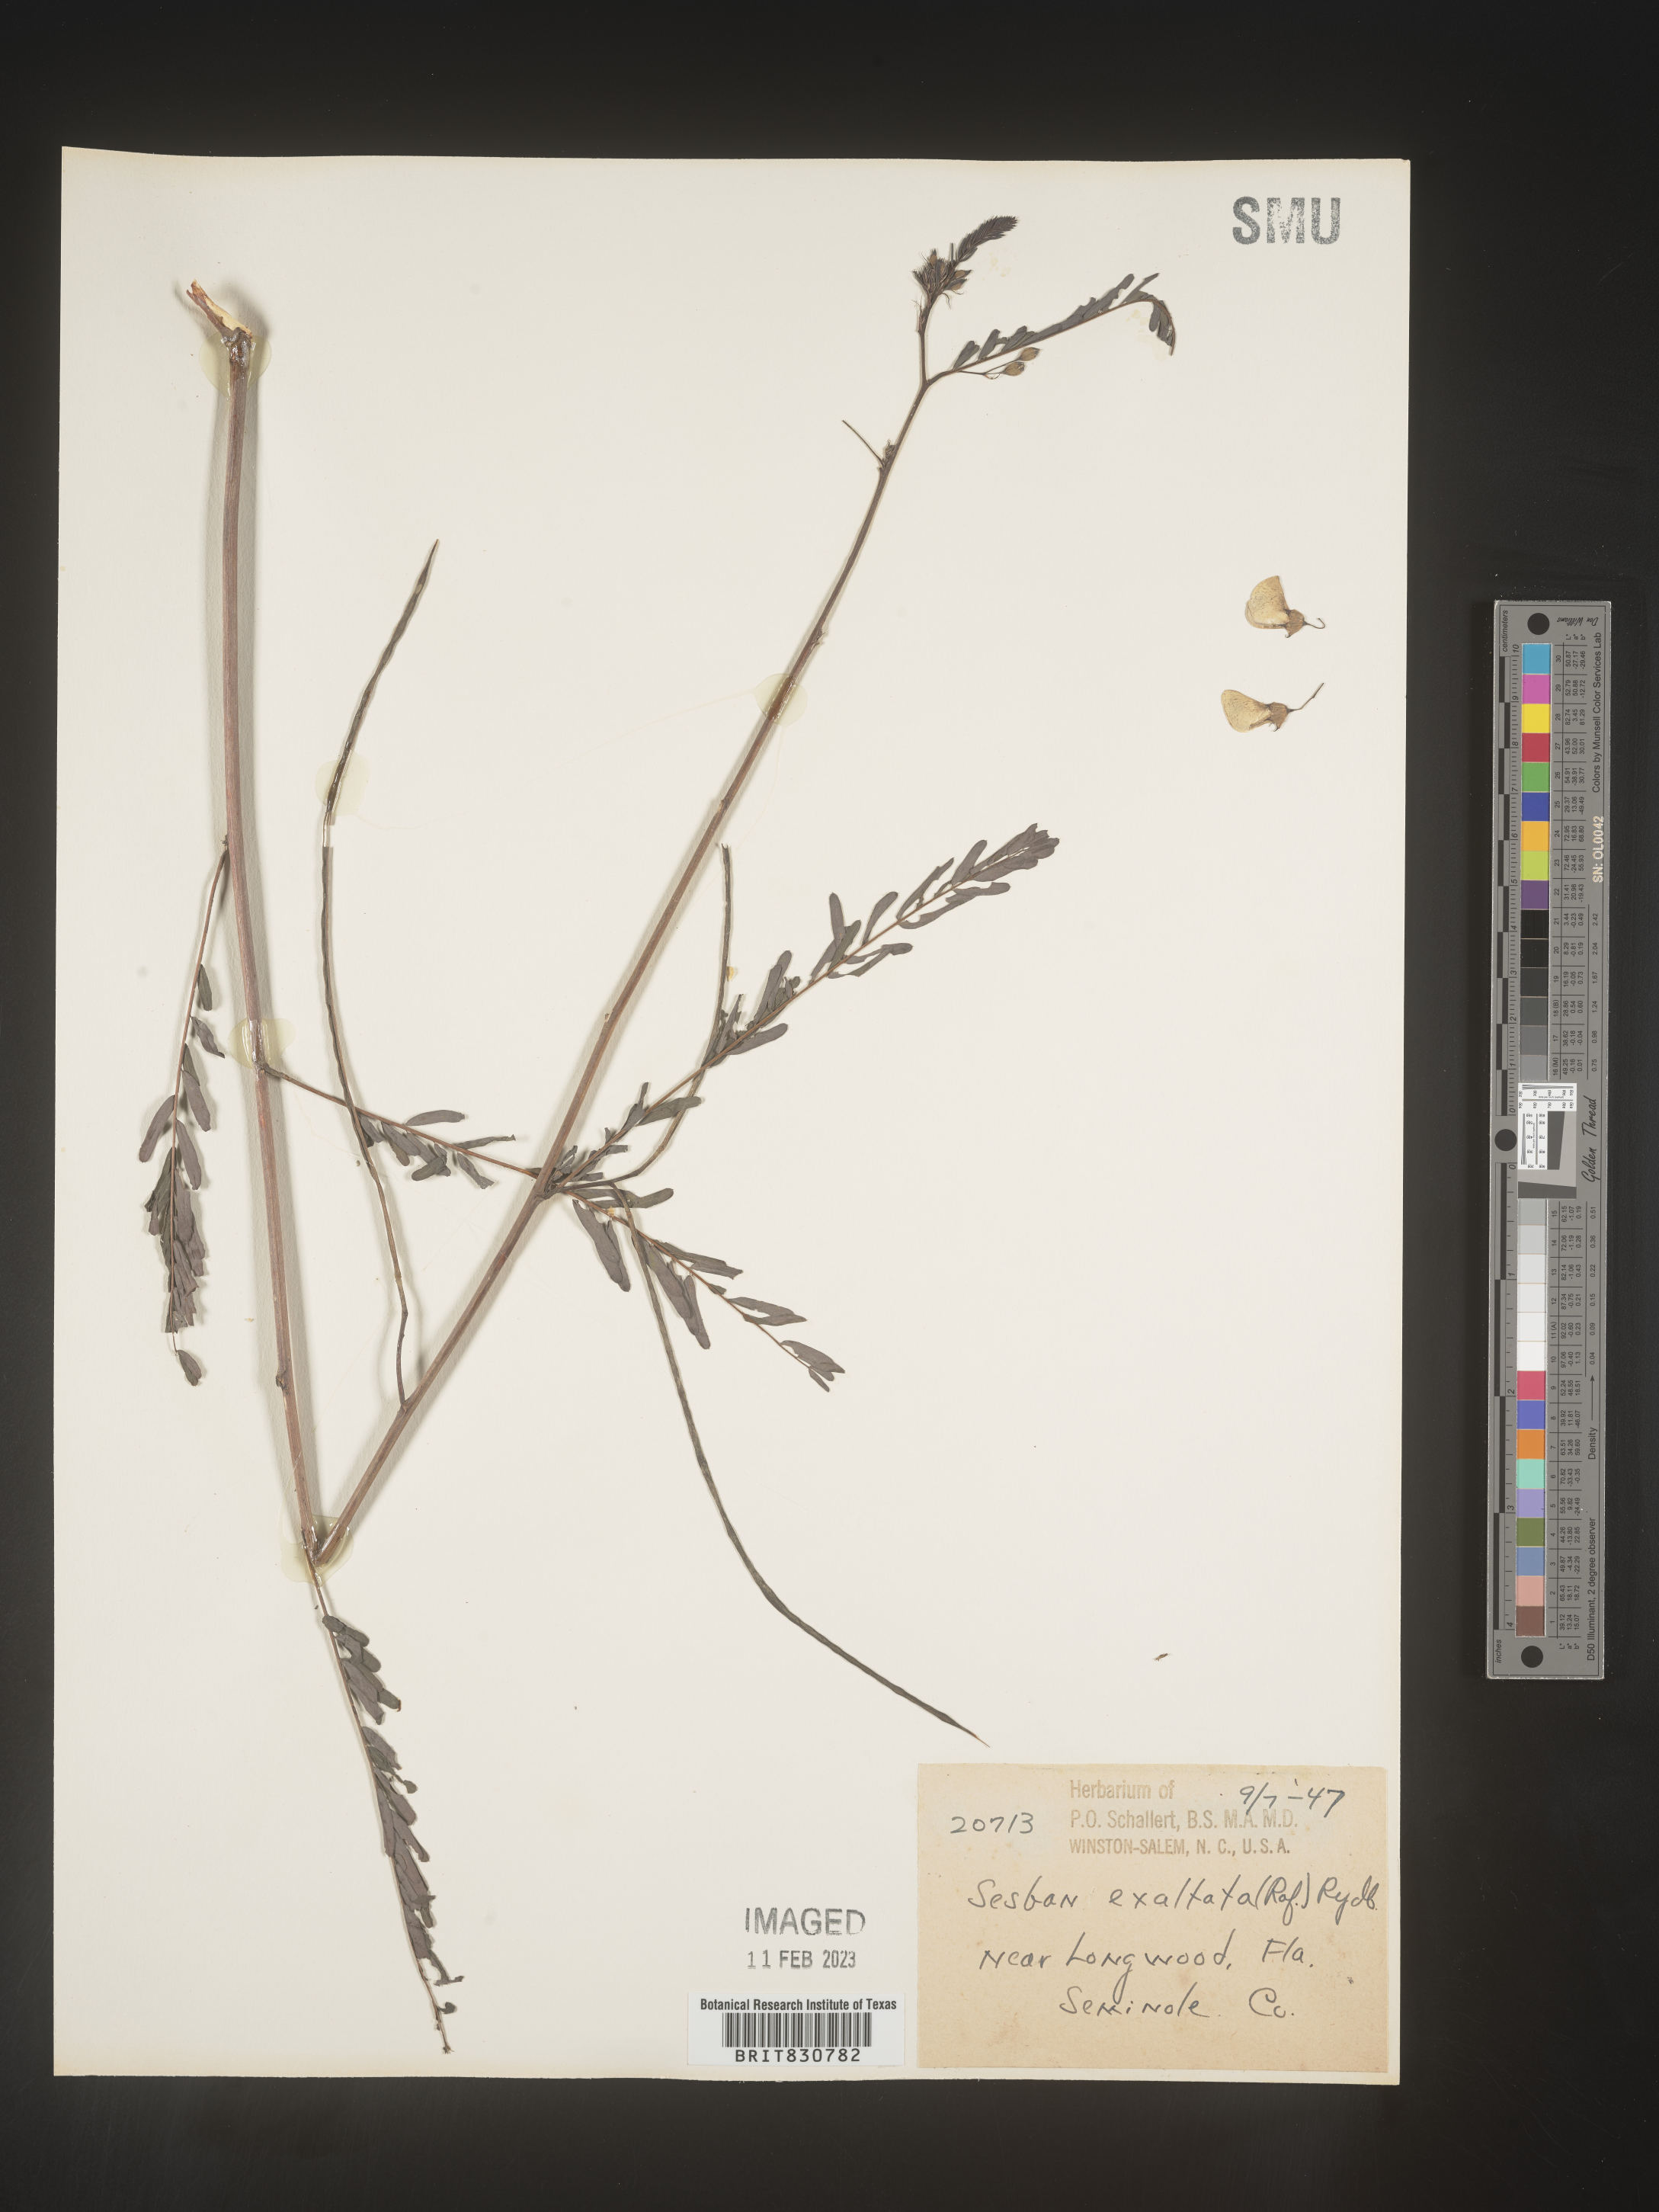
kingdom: Plantae
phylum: Tracheophyta
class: Magnoliopsida
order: Fabales
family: Fabaceae
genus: Sesbania
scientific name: Sesbania vesicaria
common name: Bagpod
